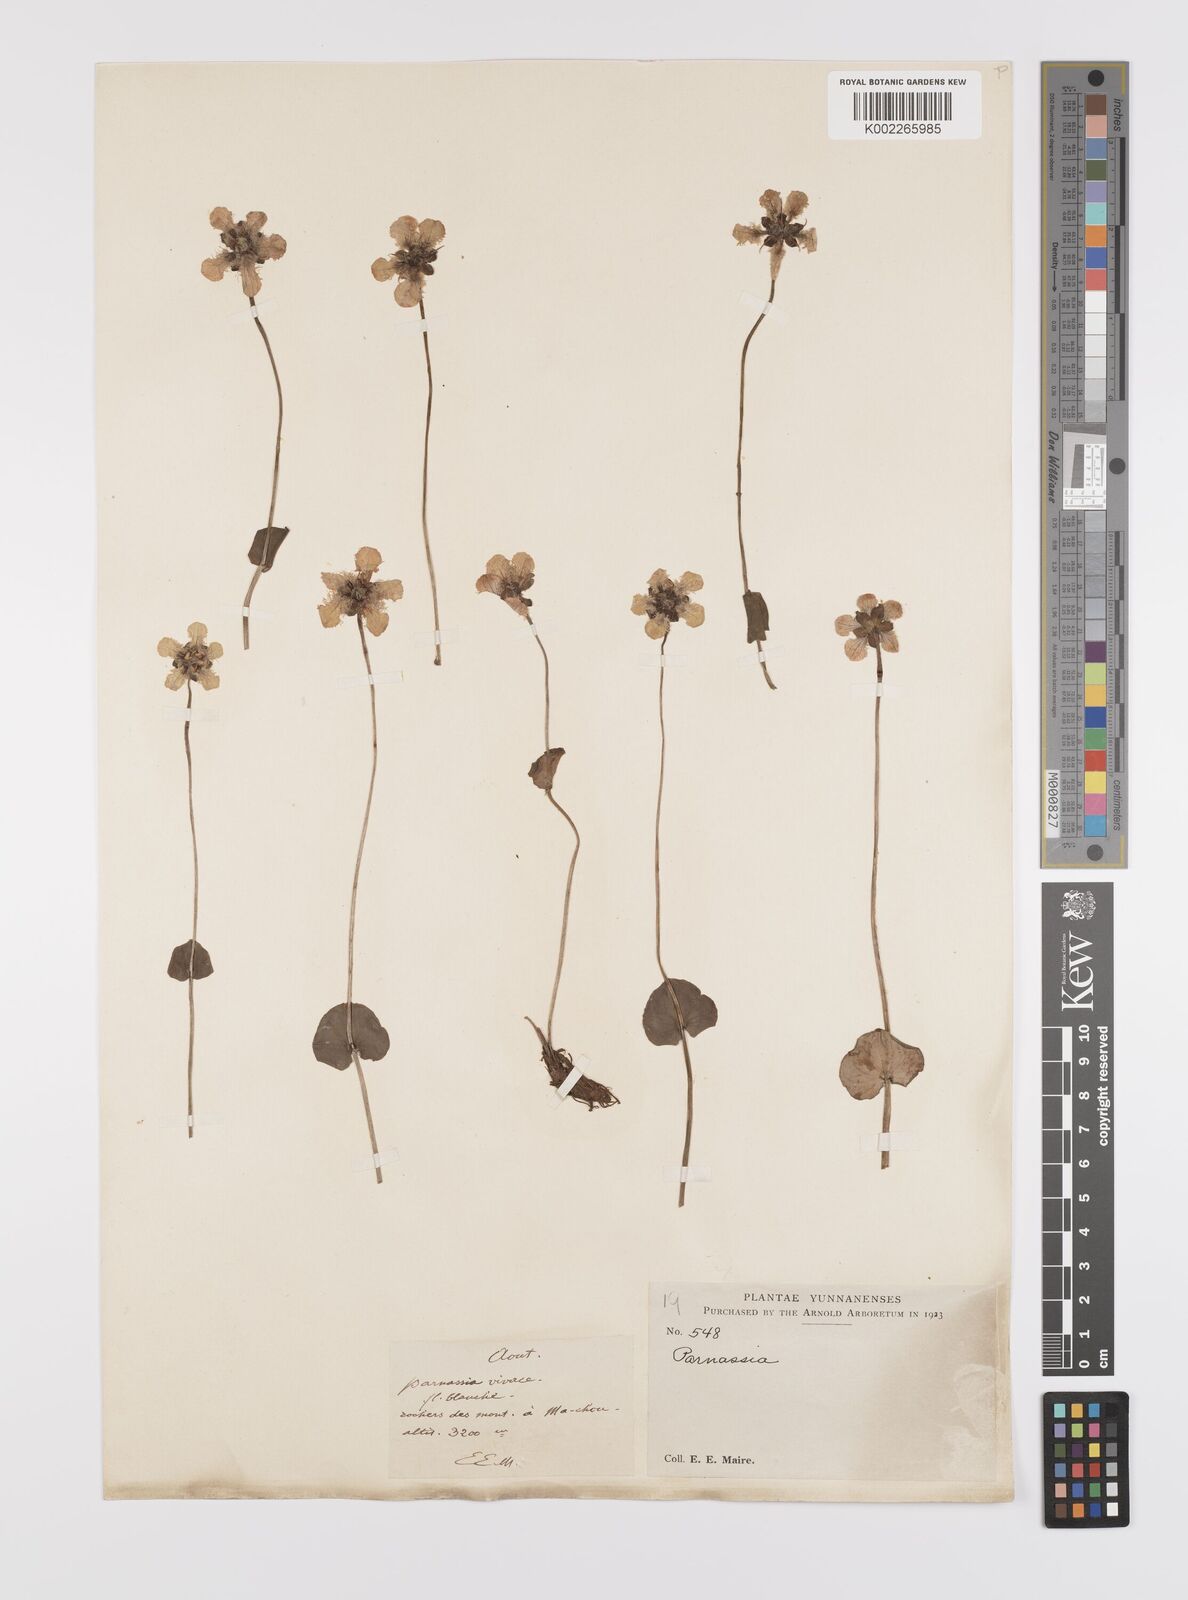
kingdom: Plantae
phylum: Tracheophyta
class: Magnoliopsida
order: Celastrales
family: Parnassiaceae
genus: Parnassia
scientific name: Parnassia wightiana
